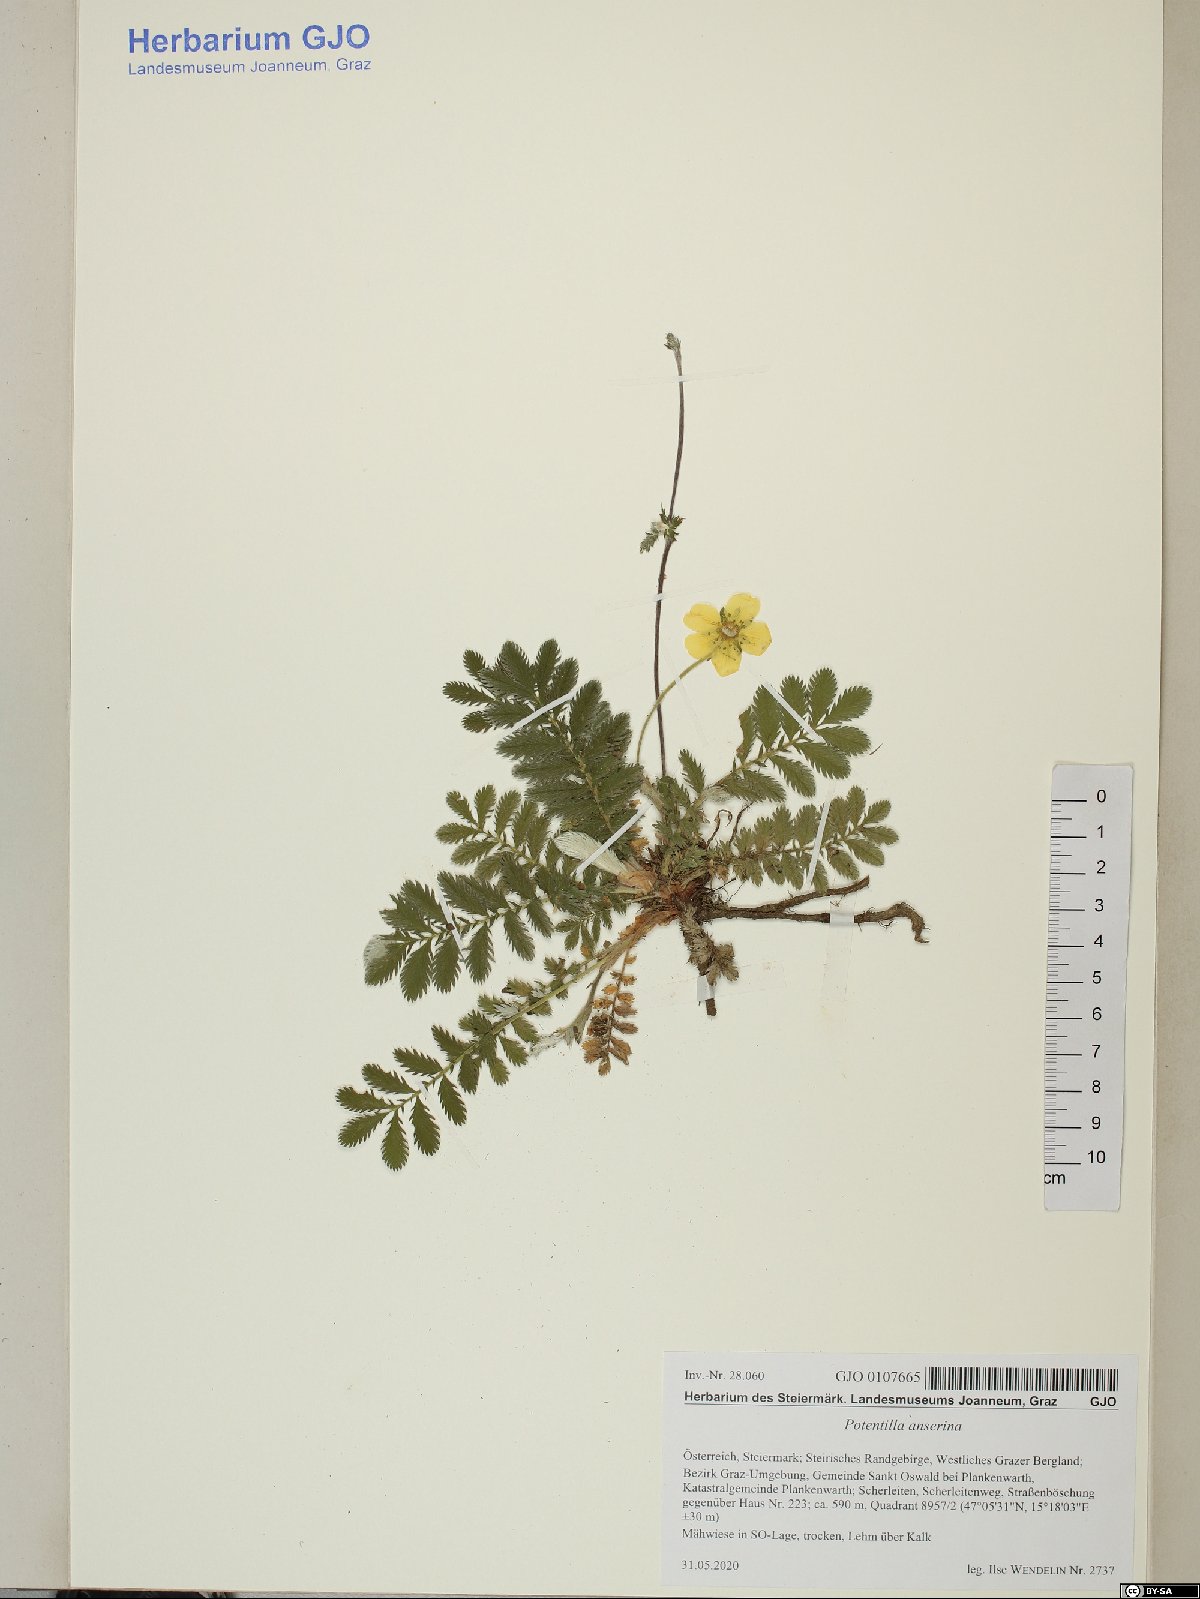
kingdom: Plantae
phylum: Tracheophyta
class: Magnoliopsida
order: Rosales
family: Rosaceae
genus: Argentina
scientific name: Argentina anserina
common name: Common silverweed
